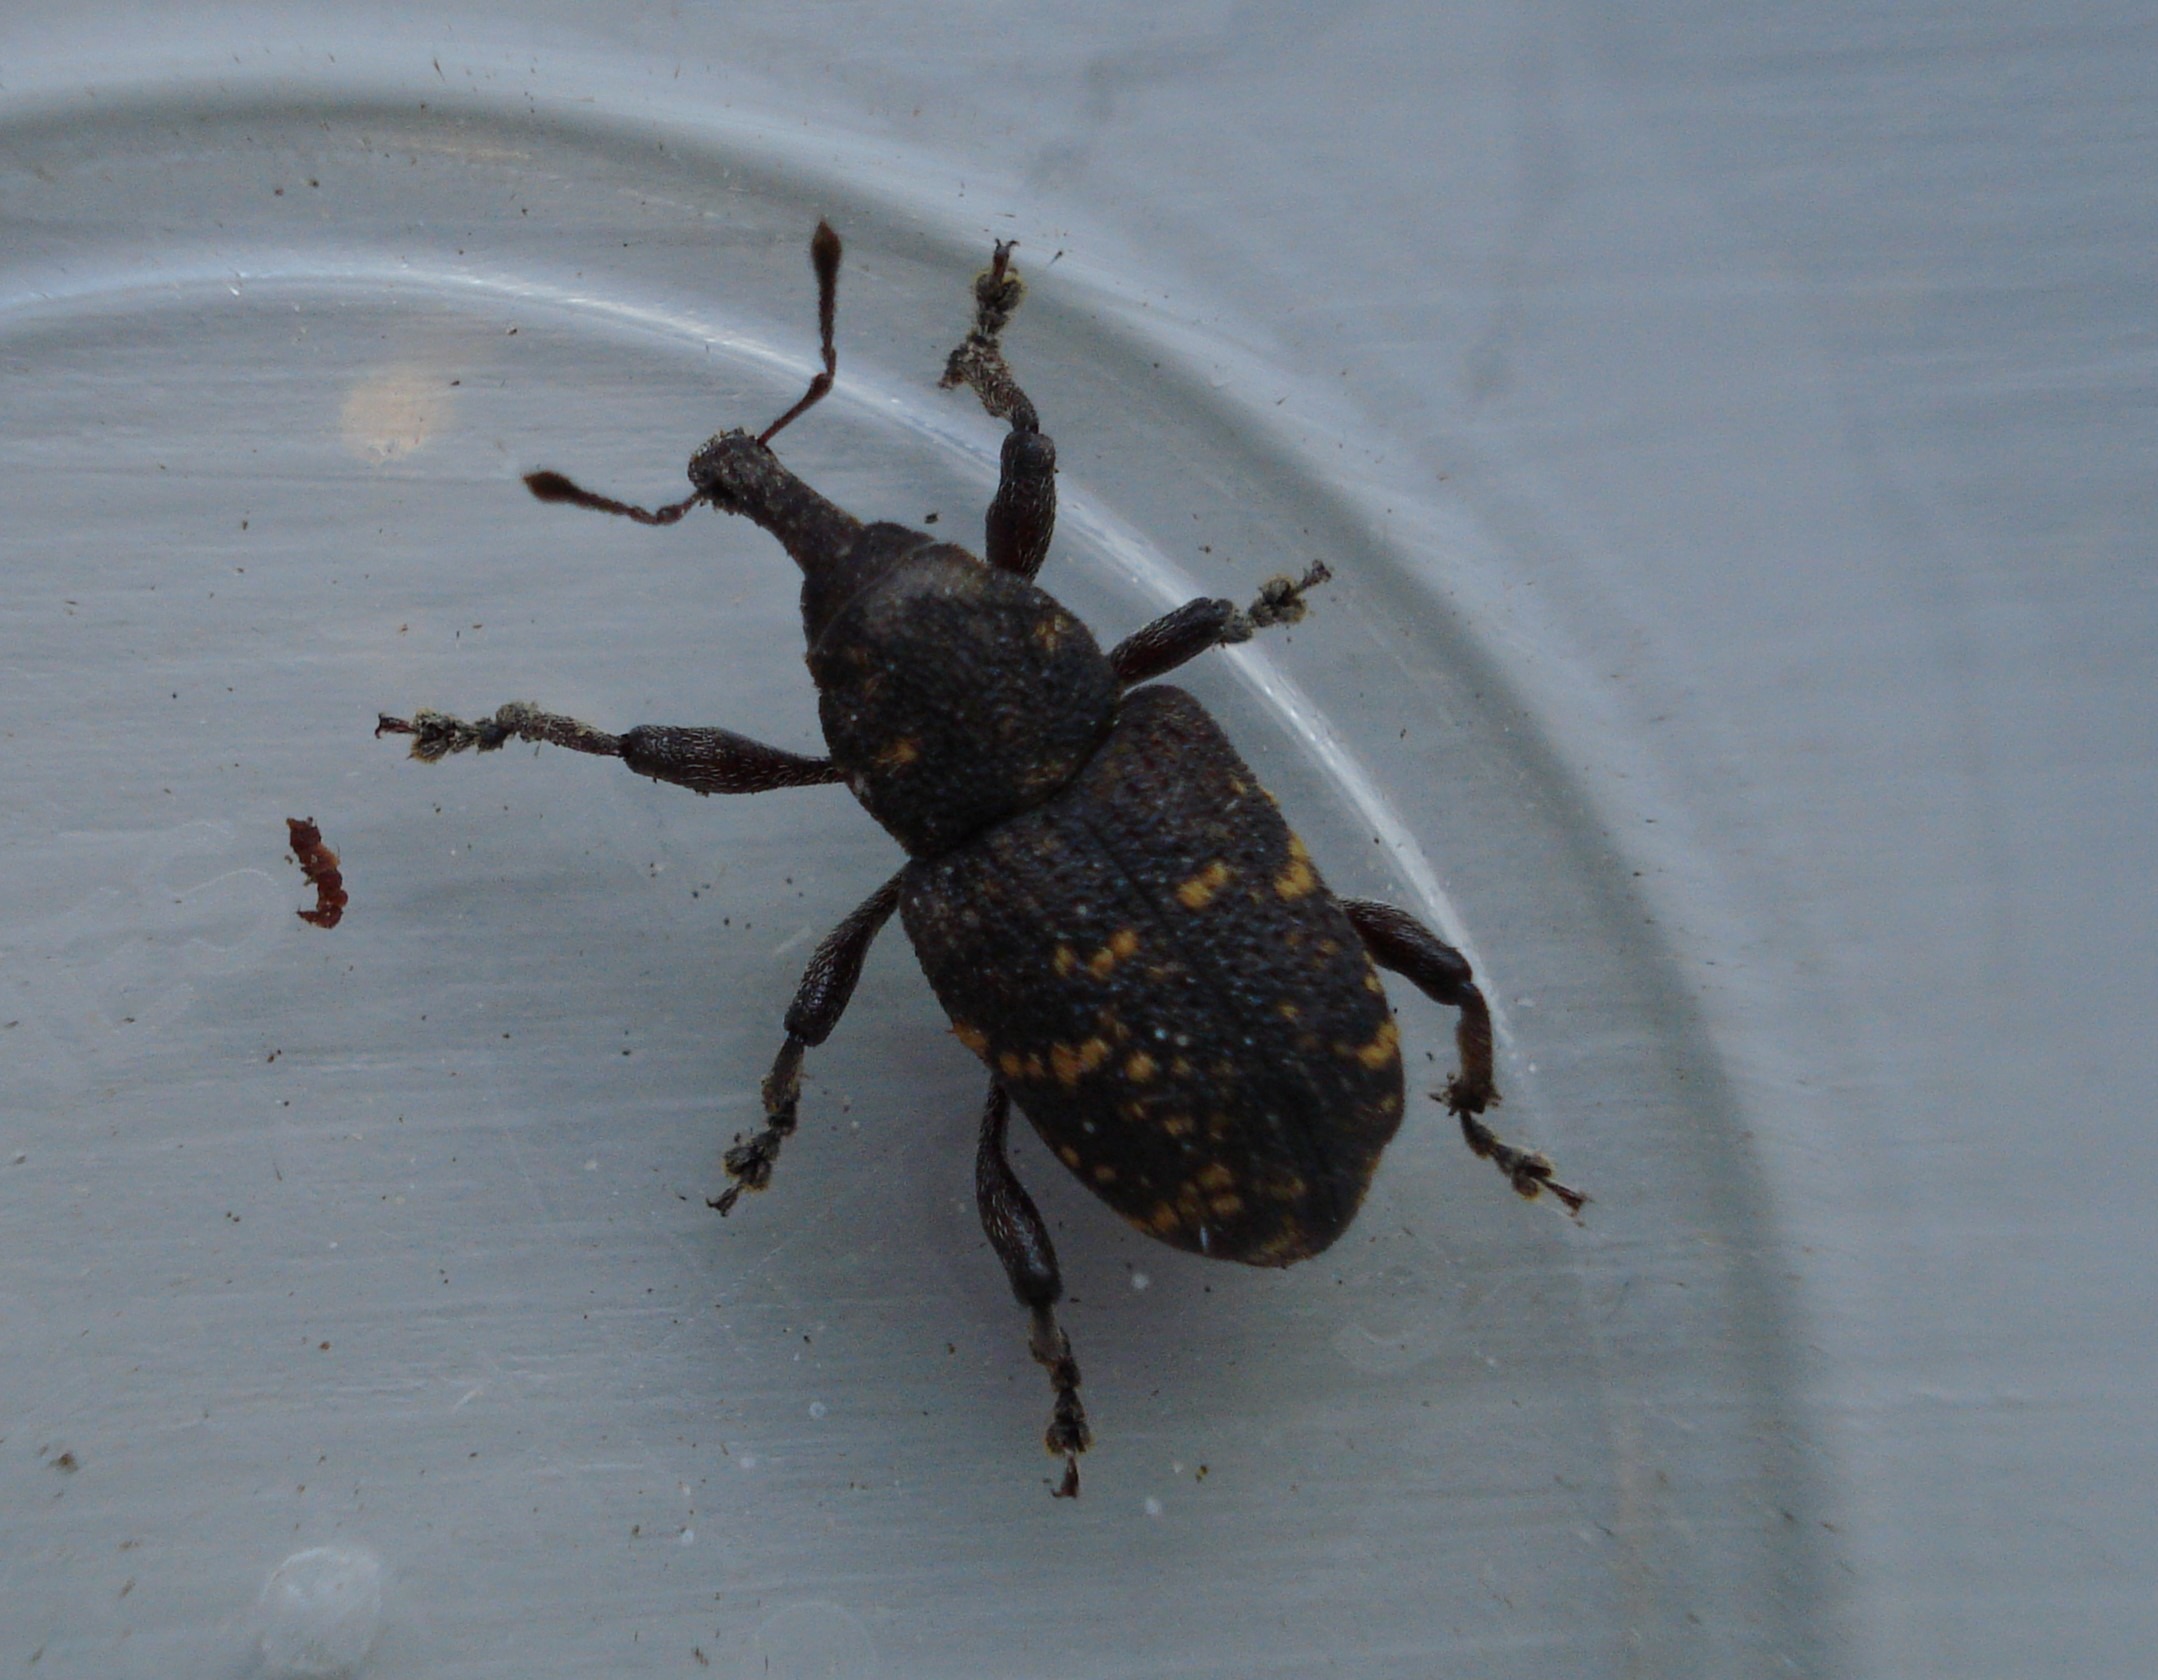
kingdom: Animalia
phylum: Arthropoda
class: Insecta
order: Coleoptera
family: Curculionidae
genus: Hylobius
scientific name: Hylobius abietis
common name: Stor nåletræsnudebille
